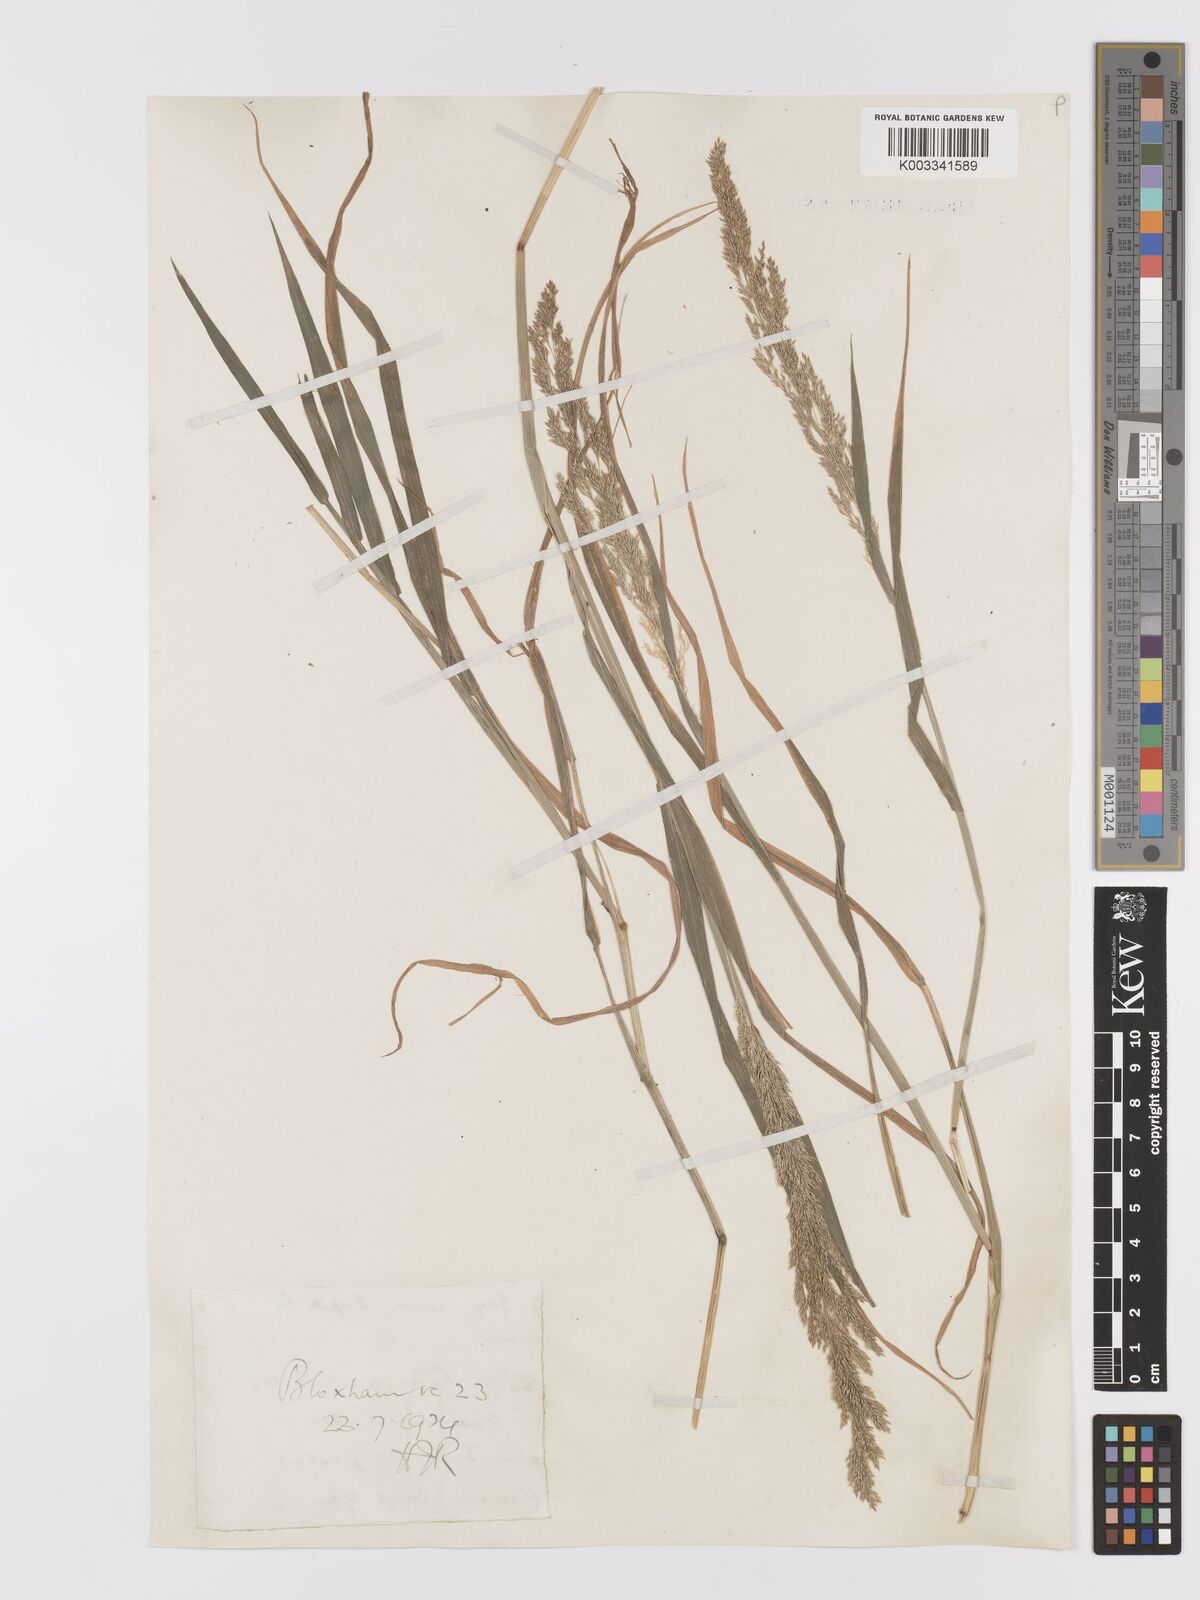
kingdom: Plantae
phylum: Tracheophyta
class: Liliopsida
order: Poales
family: Poaceae
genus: Agrostis
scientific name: Agrostis stolonifera
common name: Creeping bentgrass
